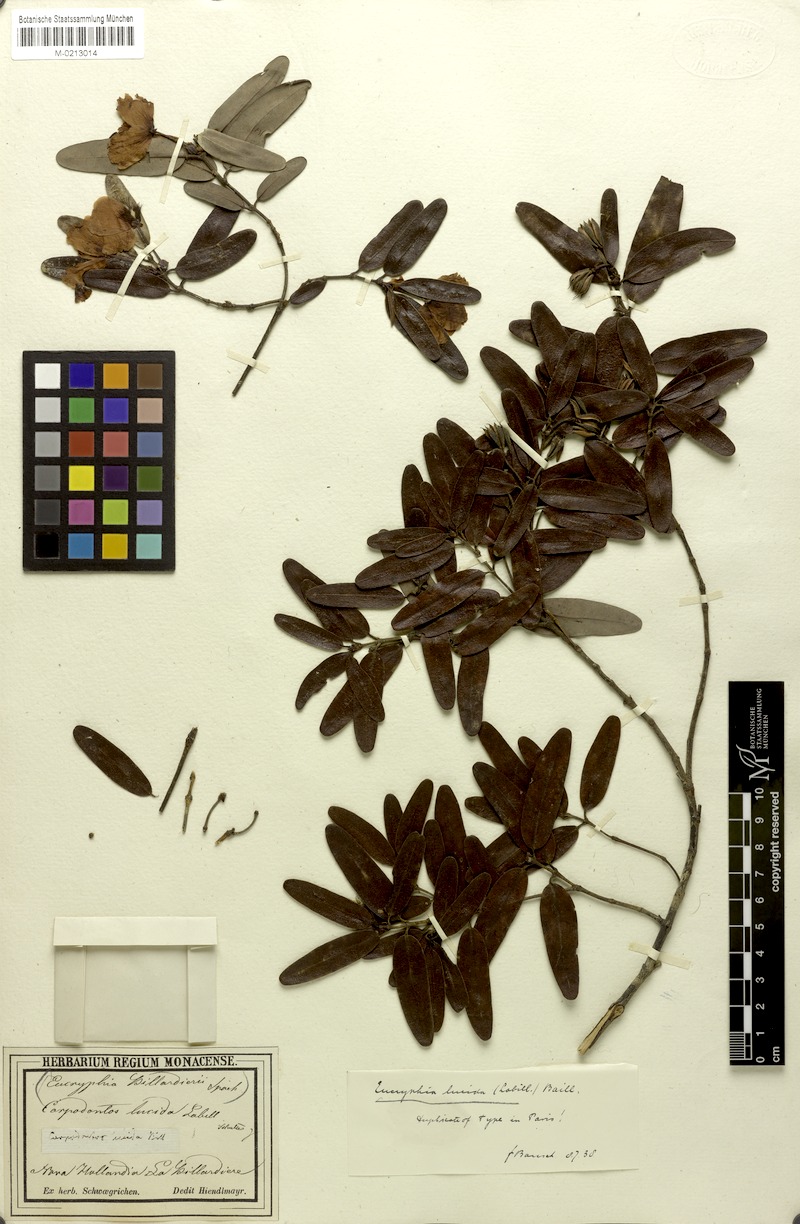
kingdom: Plantae
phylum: Tracheophyta
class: Magnoliopsida
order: Oxalidales
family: Cunoniaceae
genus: Eucryphia
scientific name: Eucryphia lucida
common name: Leatherwood
